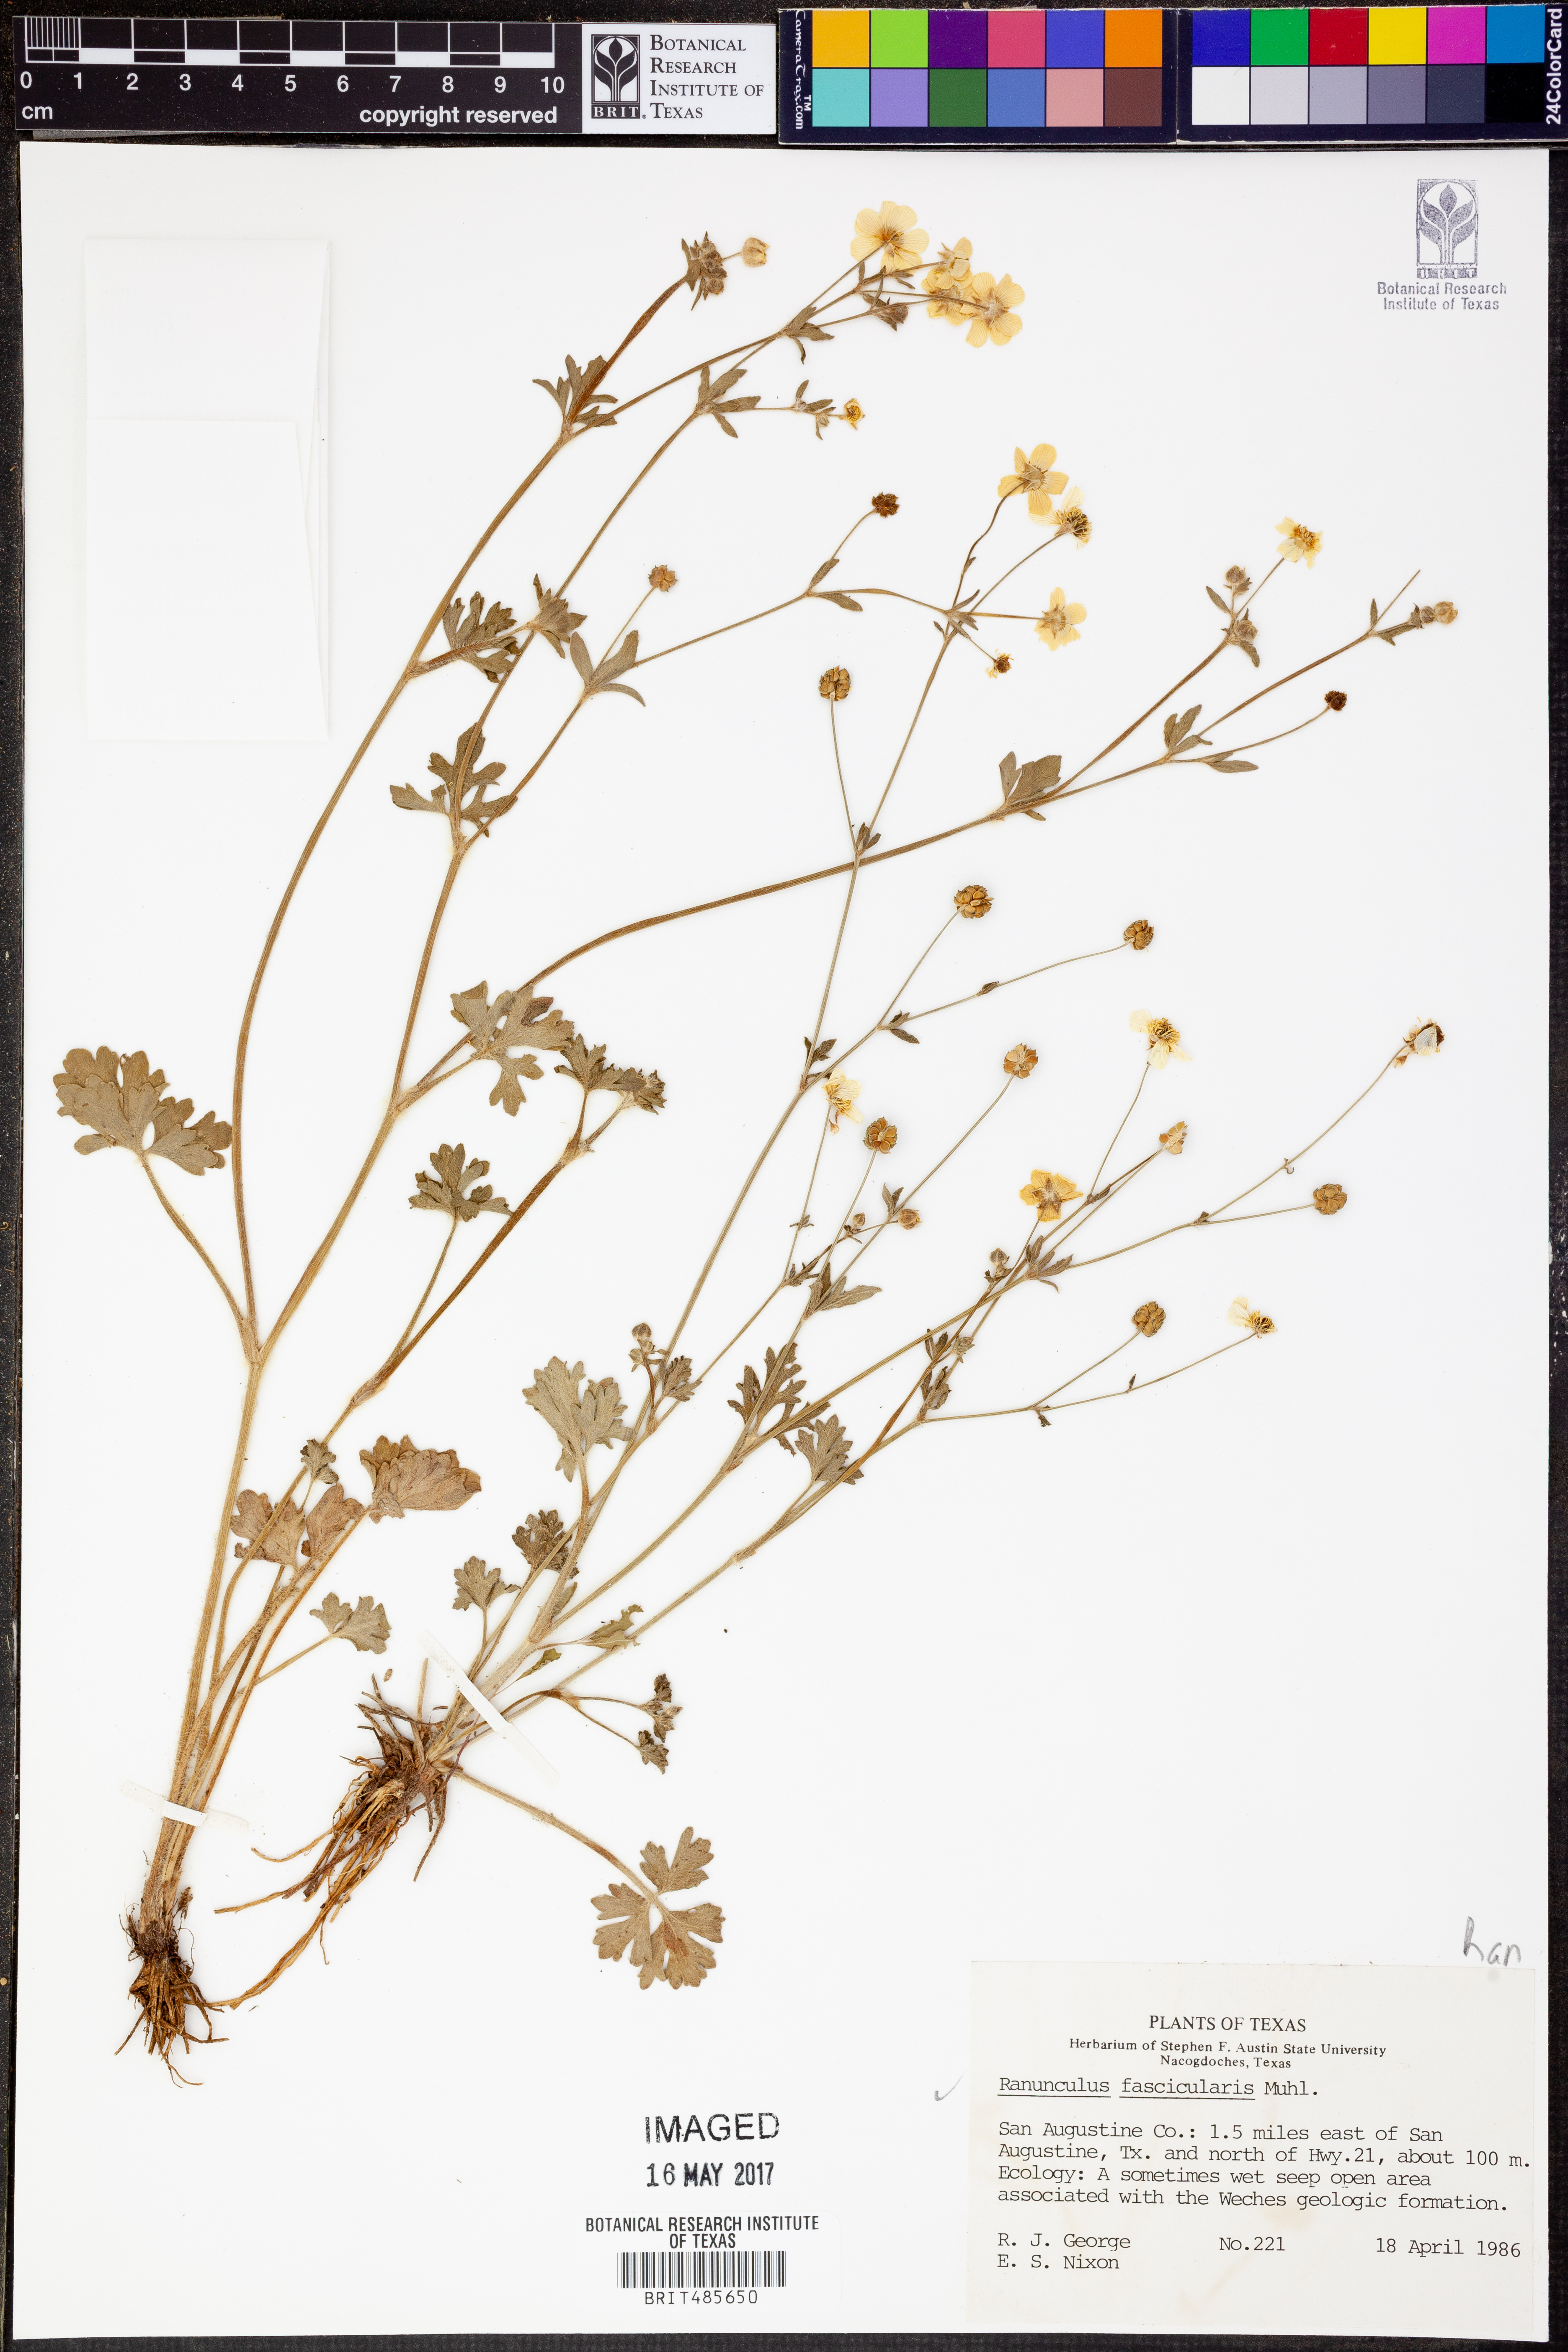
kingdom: Plantae
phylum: Tracheophyta
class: Magnoliopsida
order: Ranunculales
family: Ranunculaceae
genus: Ranunculus
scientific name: Ranunculus fascicularis
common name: Early buttercup
